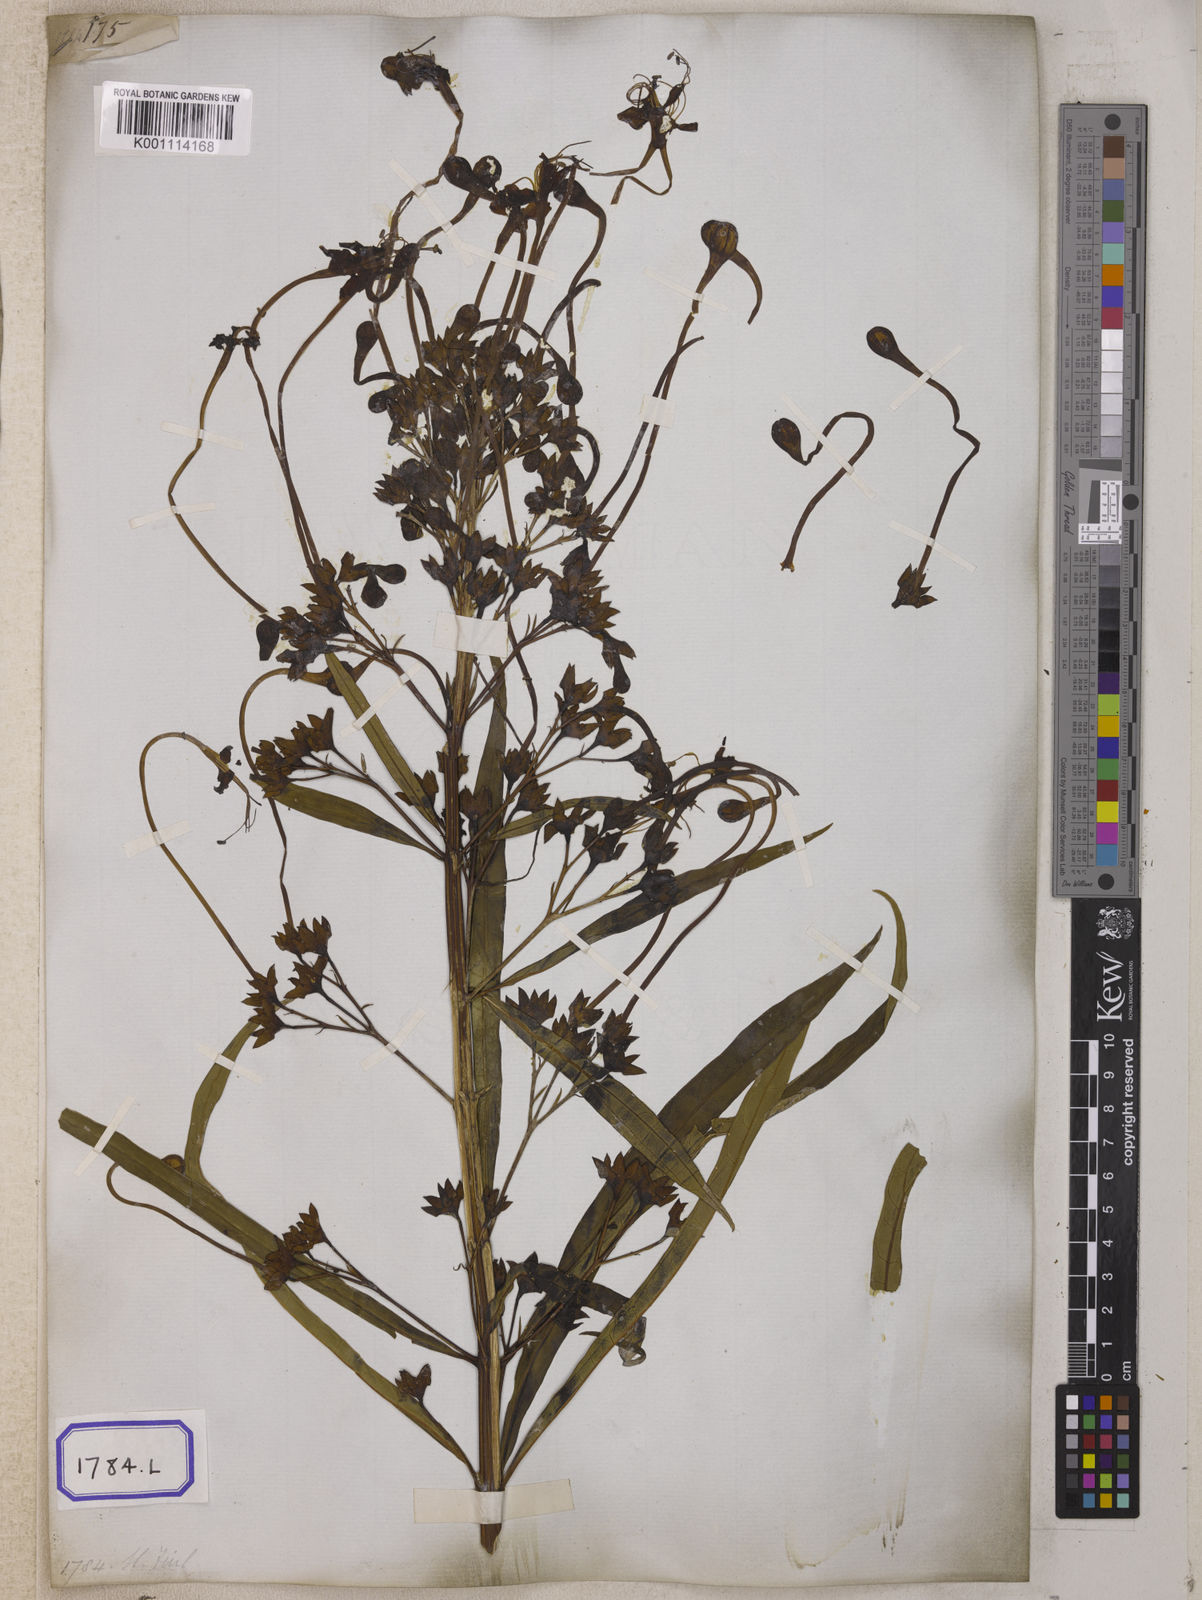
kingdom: Plantae
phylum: Tracheophyta
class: Magnoliopsida
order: Lamiales
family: Lamiaceae
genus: Clerodendrum
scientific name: Clerodendrum indicum
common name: Turk's turbin
